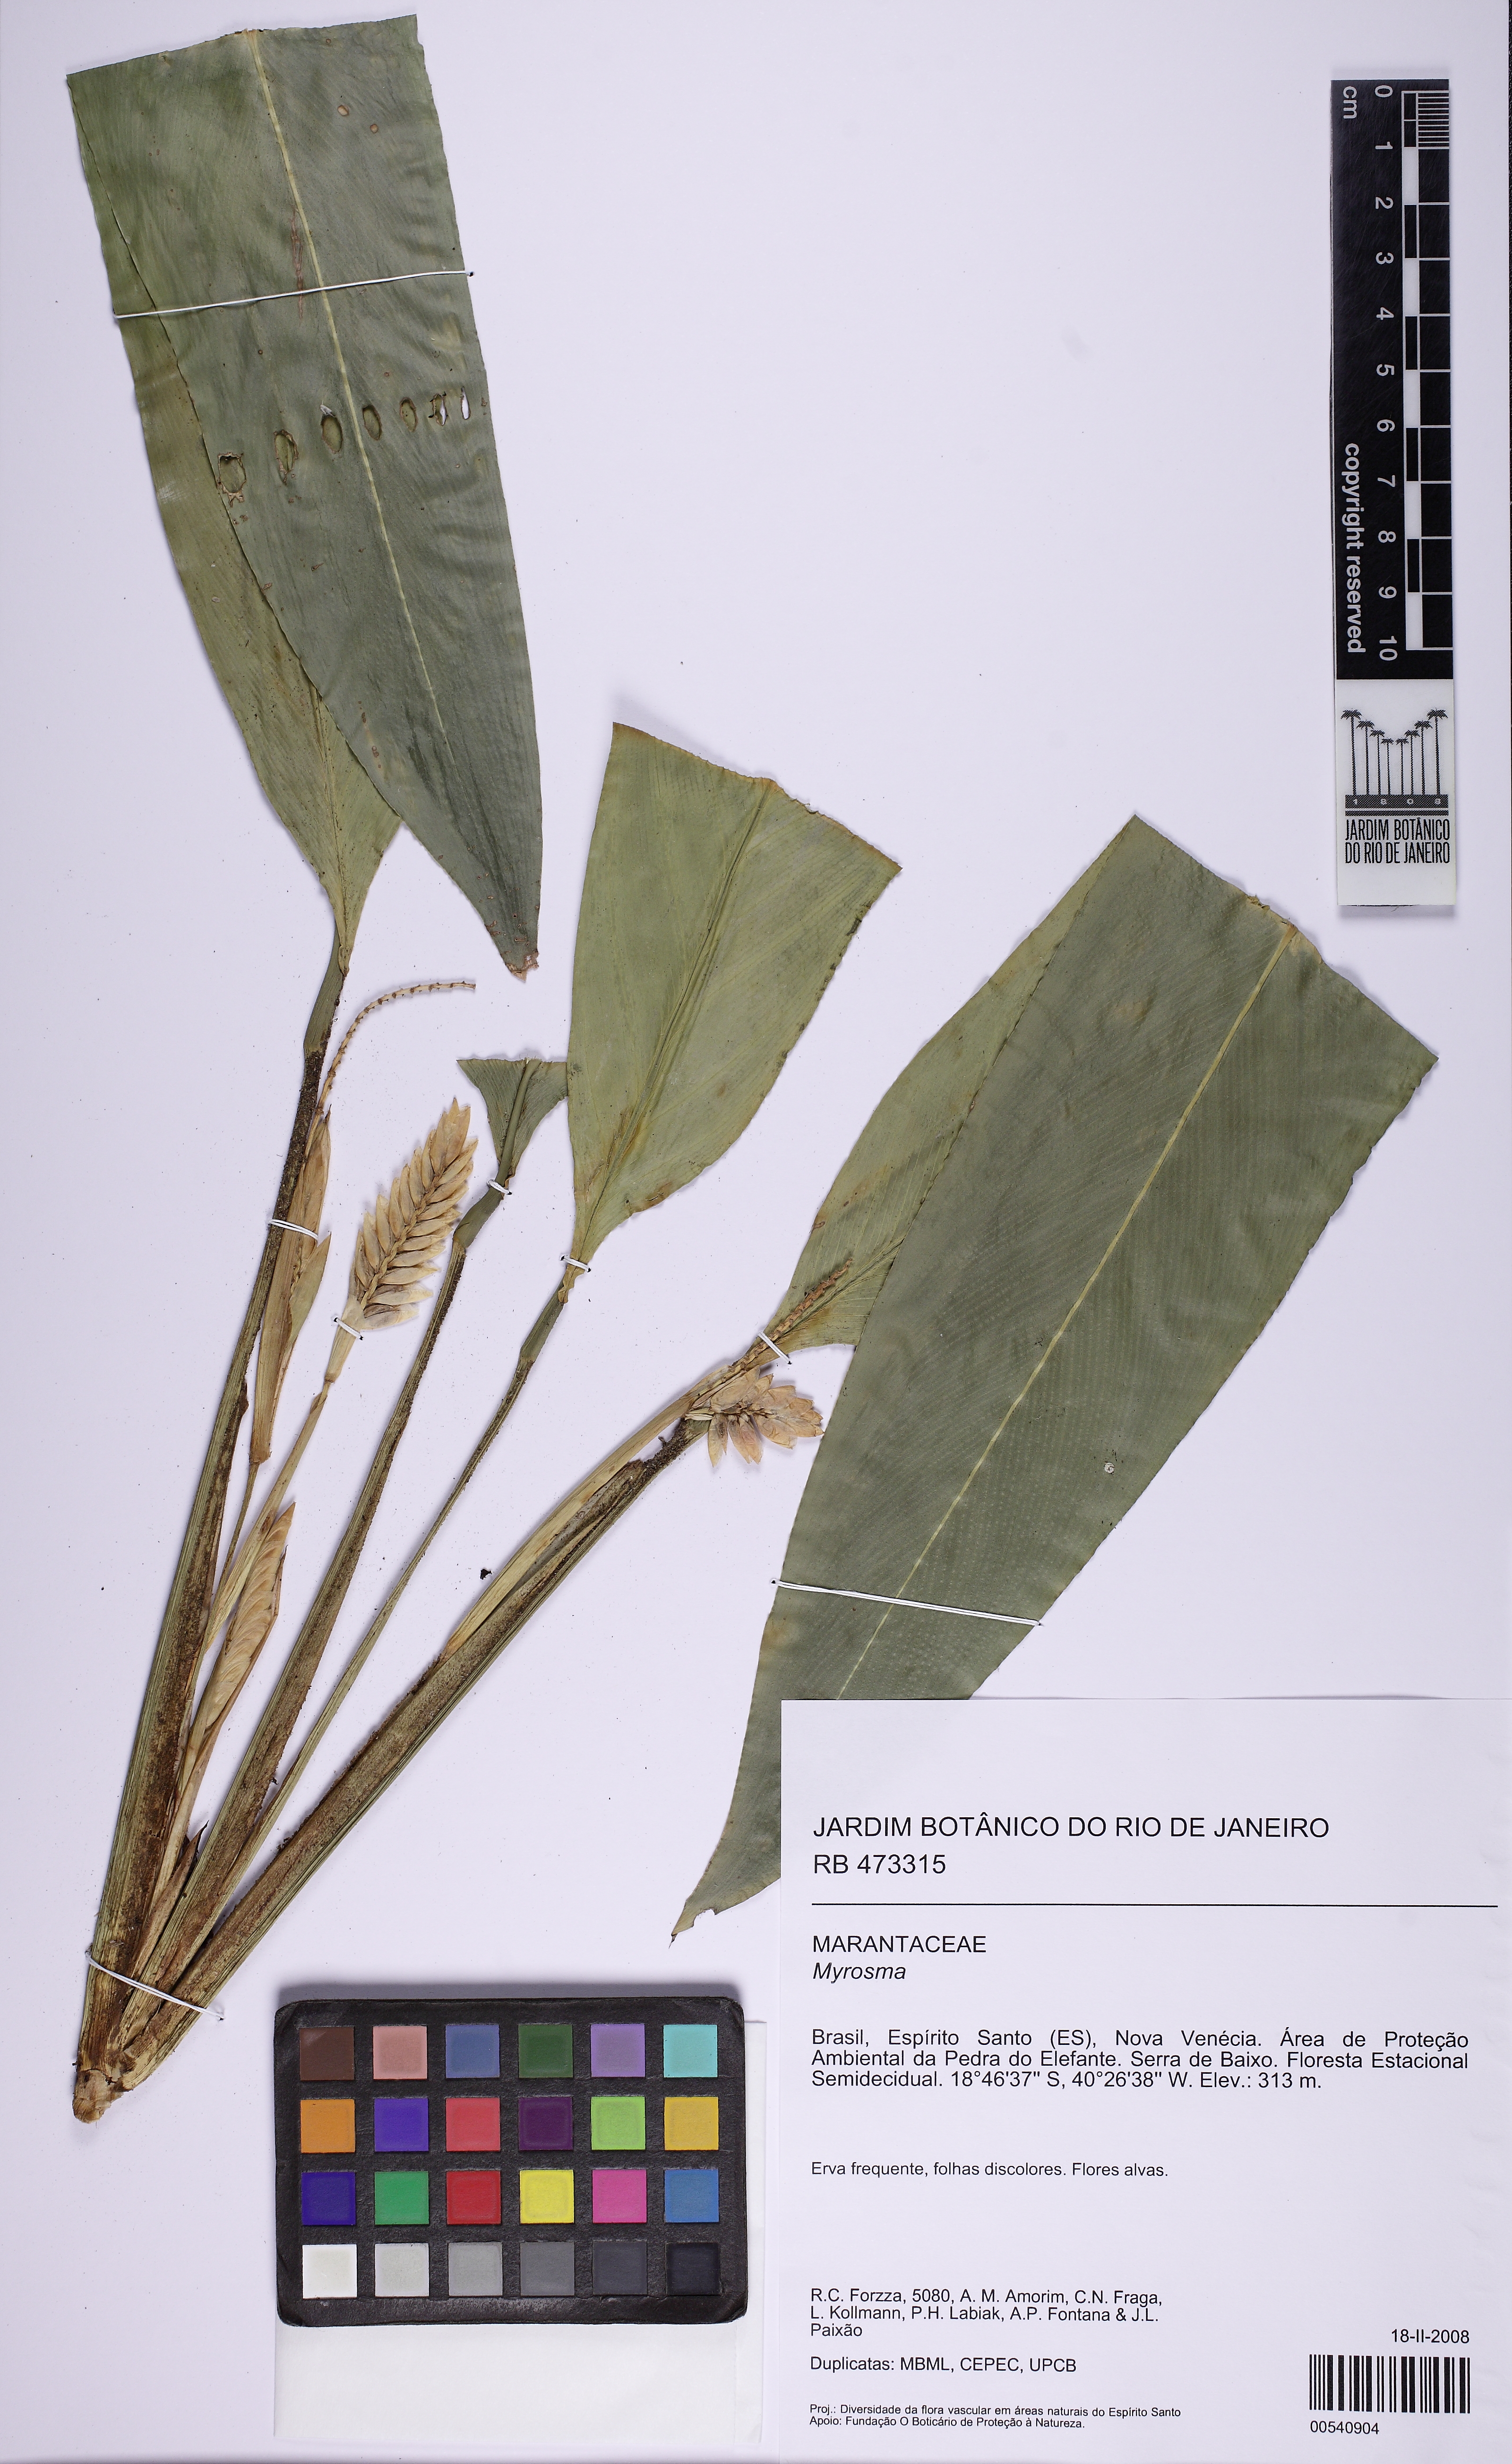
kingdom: Plantae
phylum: Tracheophyta
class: Liliopsida
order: Zingiberales
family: Marantaceae
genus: Saranthe
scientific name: Saranthe leptostachya
